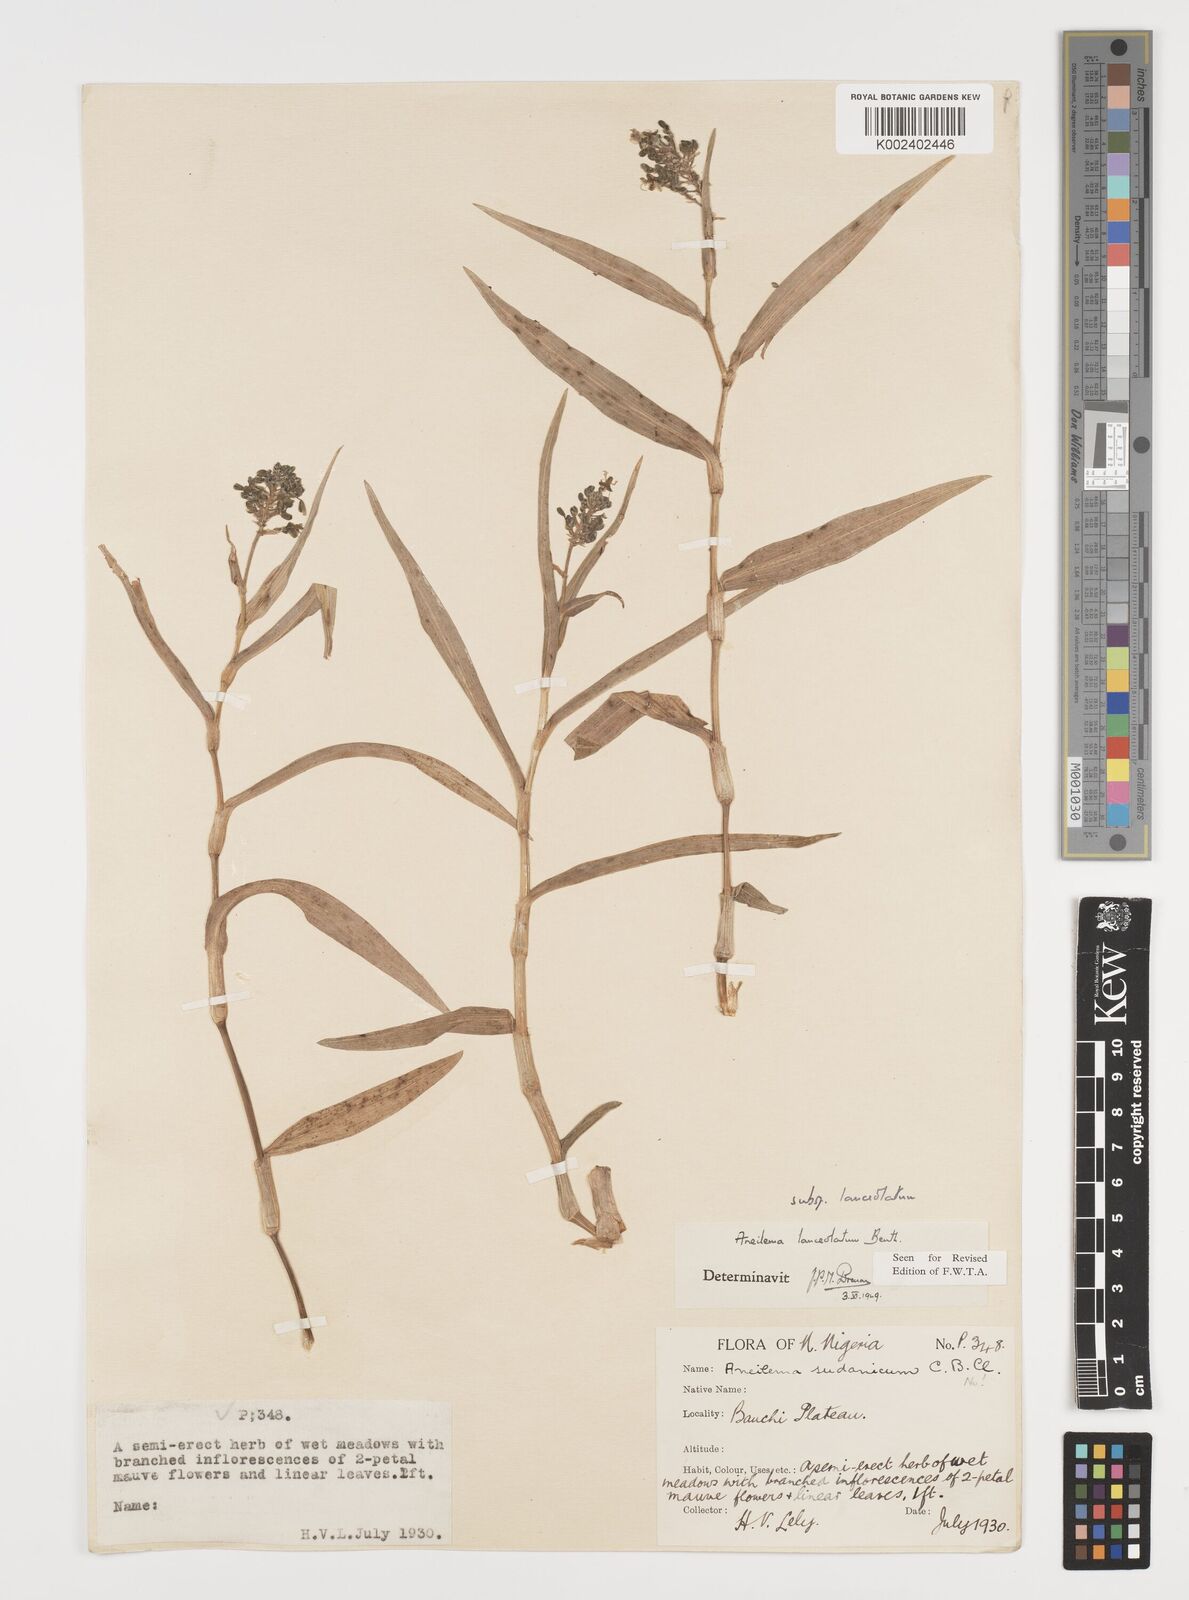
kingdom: Plantae
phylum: Tracheophyta
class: Liliopsida
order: Commelinales
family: Commelinaceae
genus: Aneilema
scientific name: Aneilema lanceolatum
